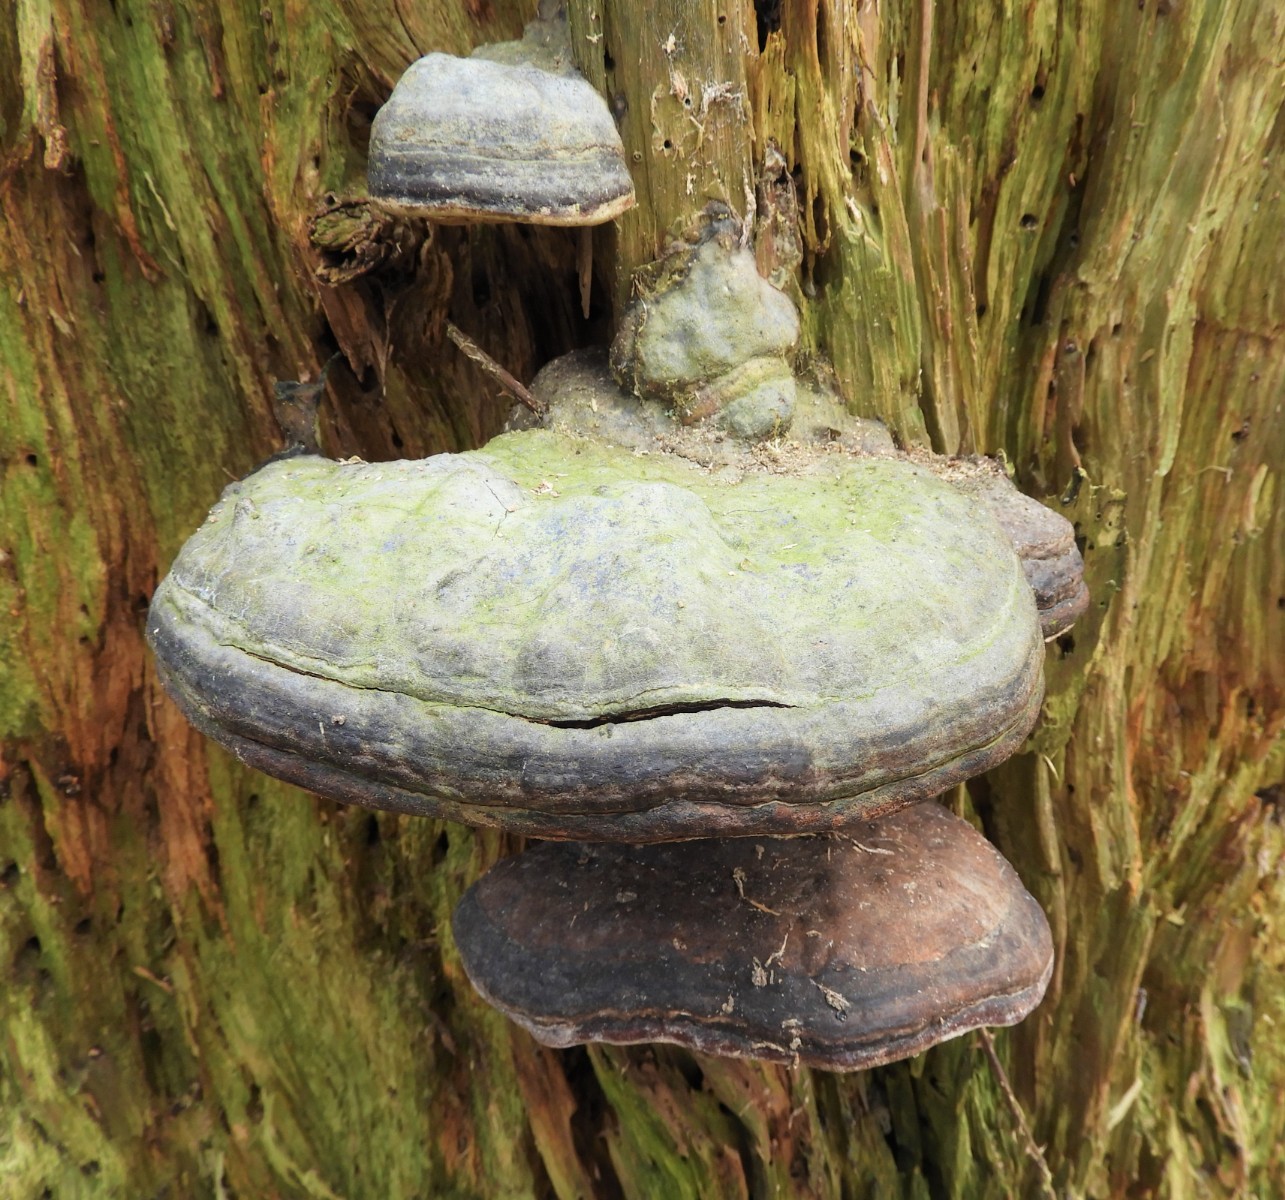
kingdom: Fungi
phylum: Basidiomycota
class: Agaricomycetes
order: Polyporales
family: Polyporaceae
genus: Fomes
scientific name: Fomes fomentarius
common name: tøndersvamp
